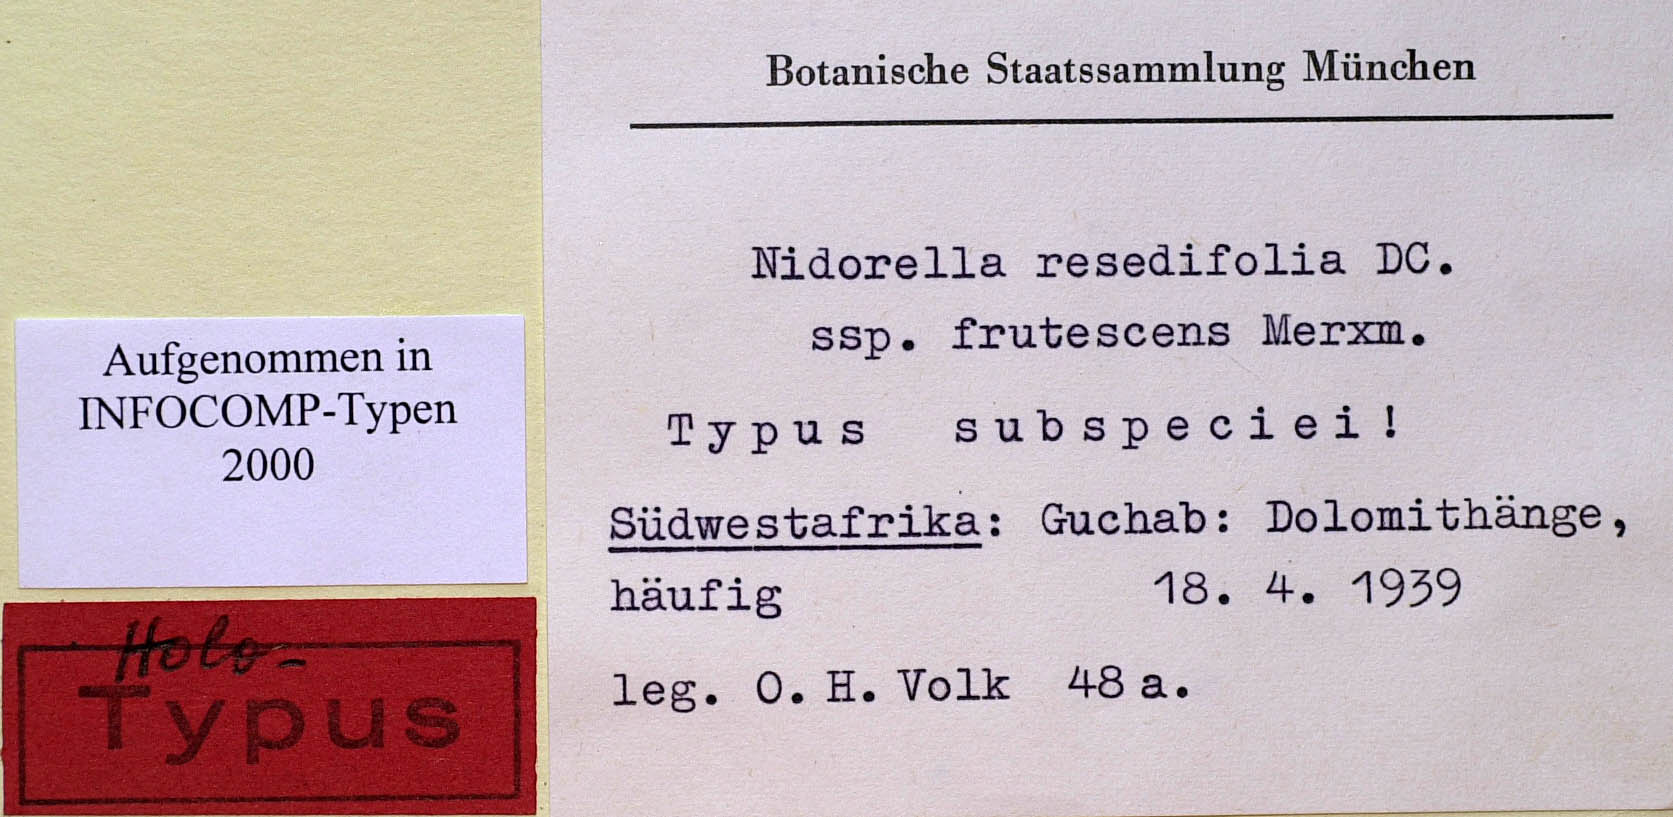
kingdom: Plantae
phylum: Tracheophyta
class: Magnoliopsida
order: Asterales
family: Asteraceae
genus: Nidorella
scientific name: Nidorella resedifolia
